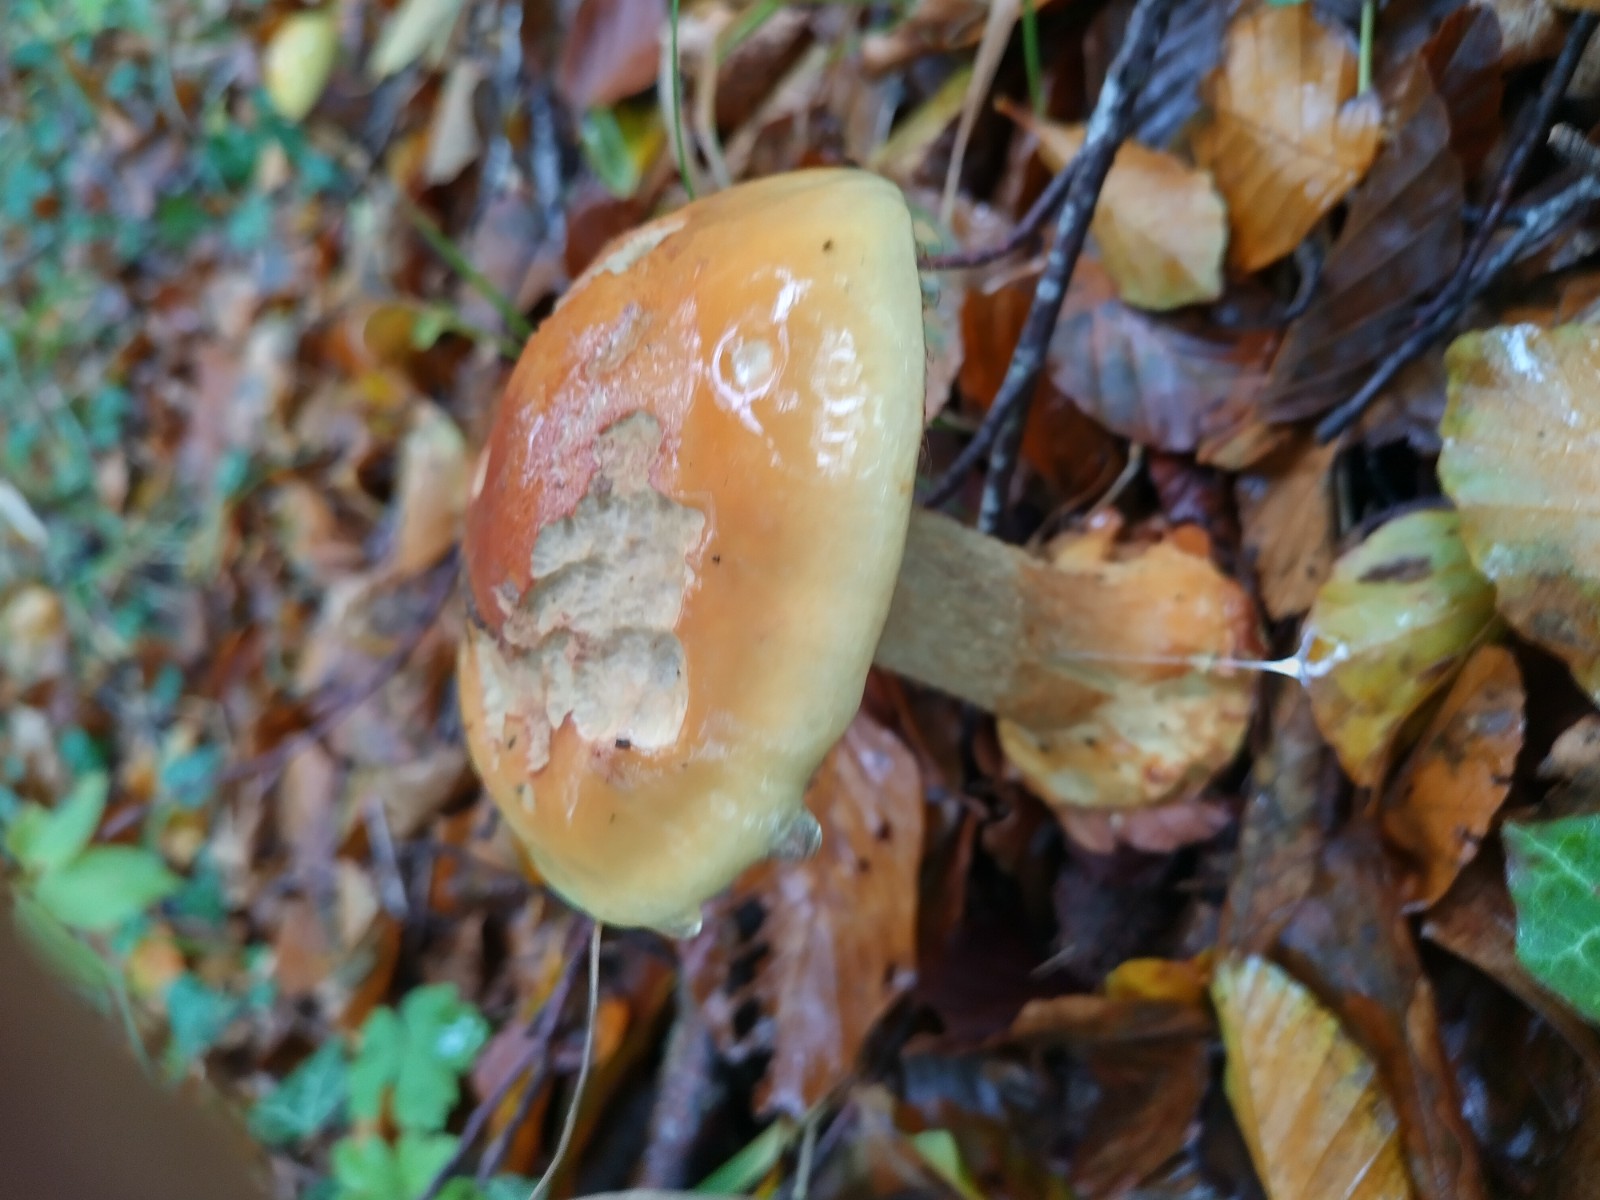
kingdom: Fungi
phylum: Basidiomycota
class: Agaricomycetes
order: Agaricales
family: Cortinariaceae
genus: Calonarius
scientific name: Calonarius elegantissimus
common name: orangegylden slørhat
